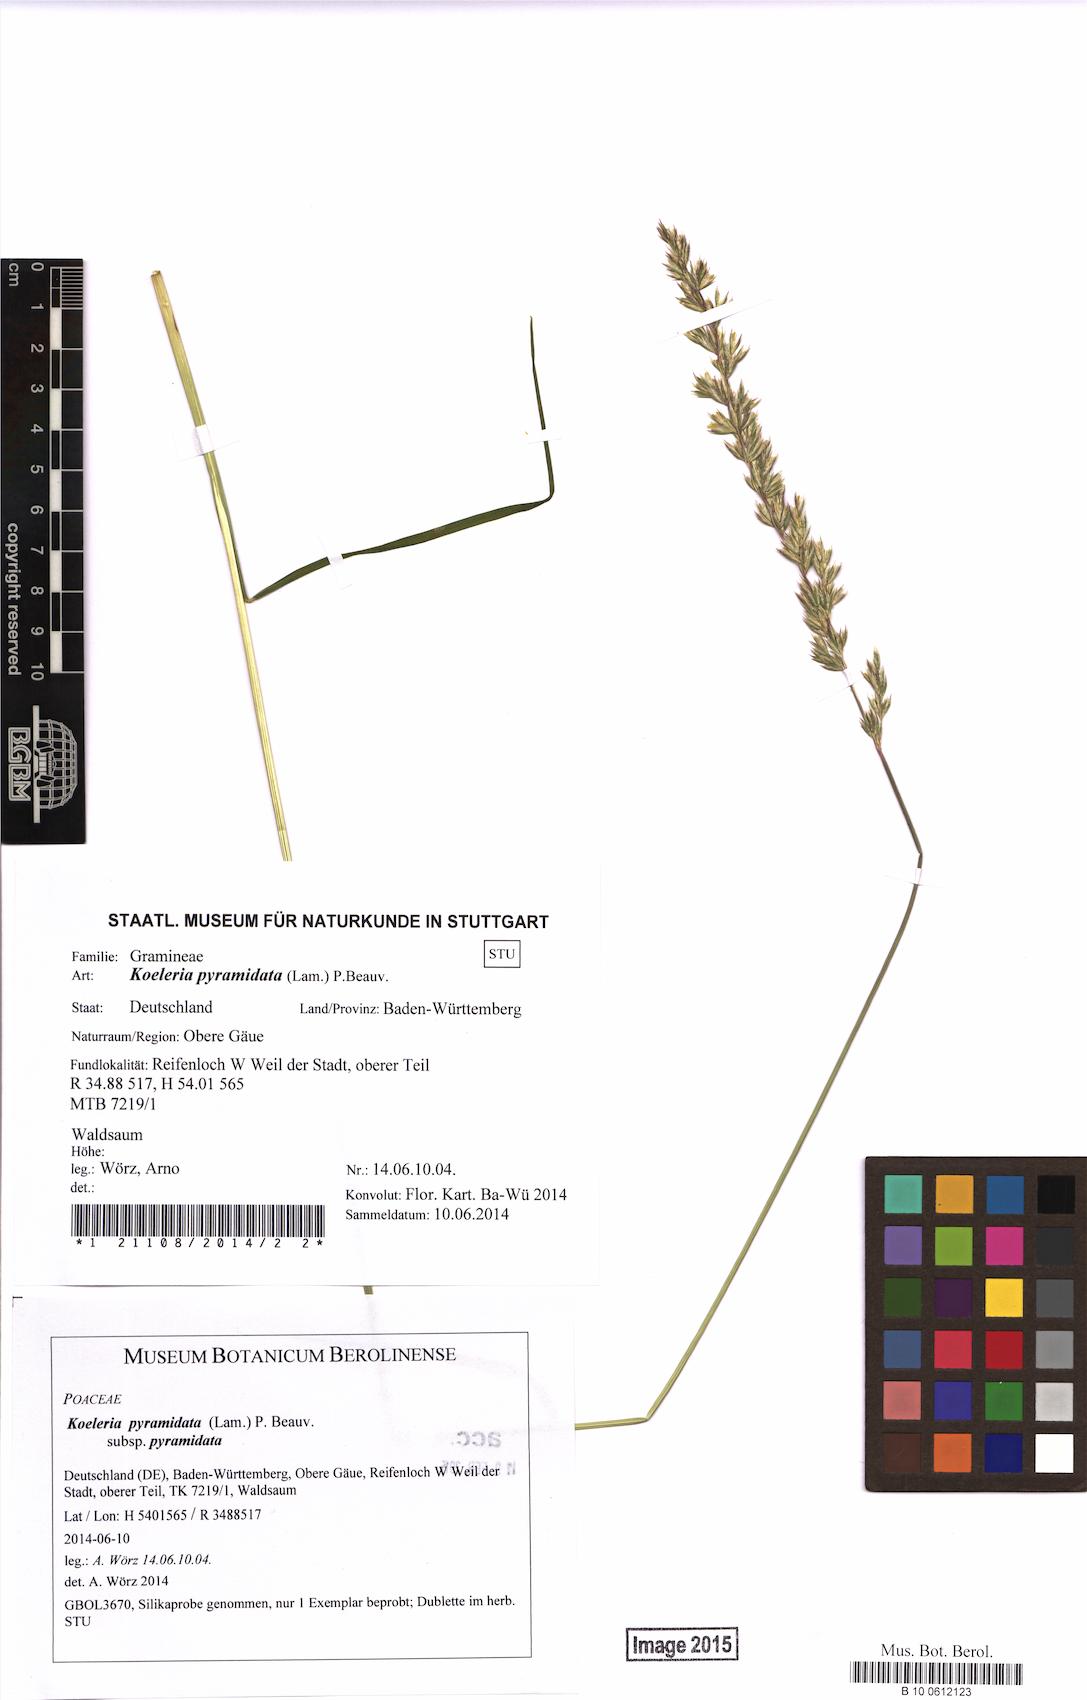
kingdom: Plantae
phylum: Tracheophyta
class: Liliopsida
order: Poales
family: Poaceae
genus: Koeleria
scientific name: Koeleria pyramidata
